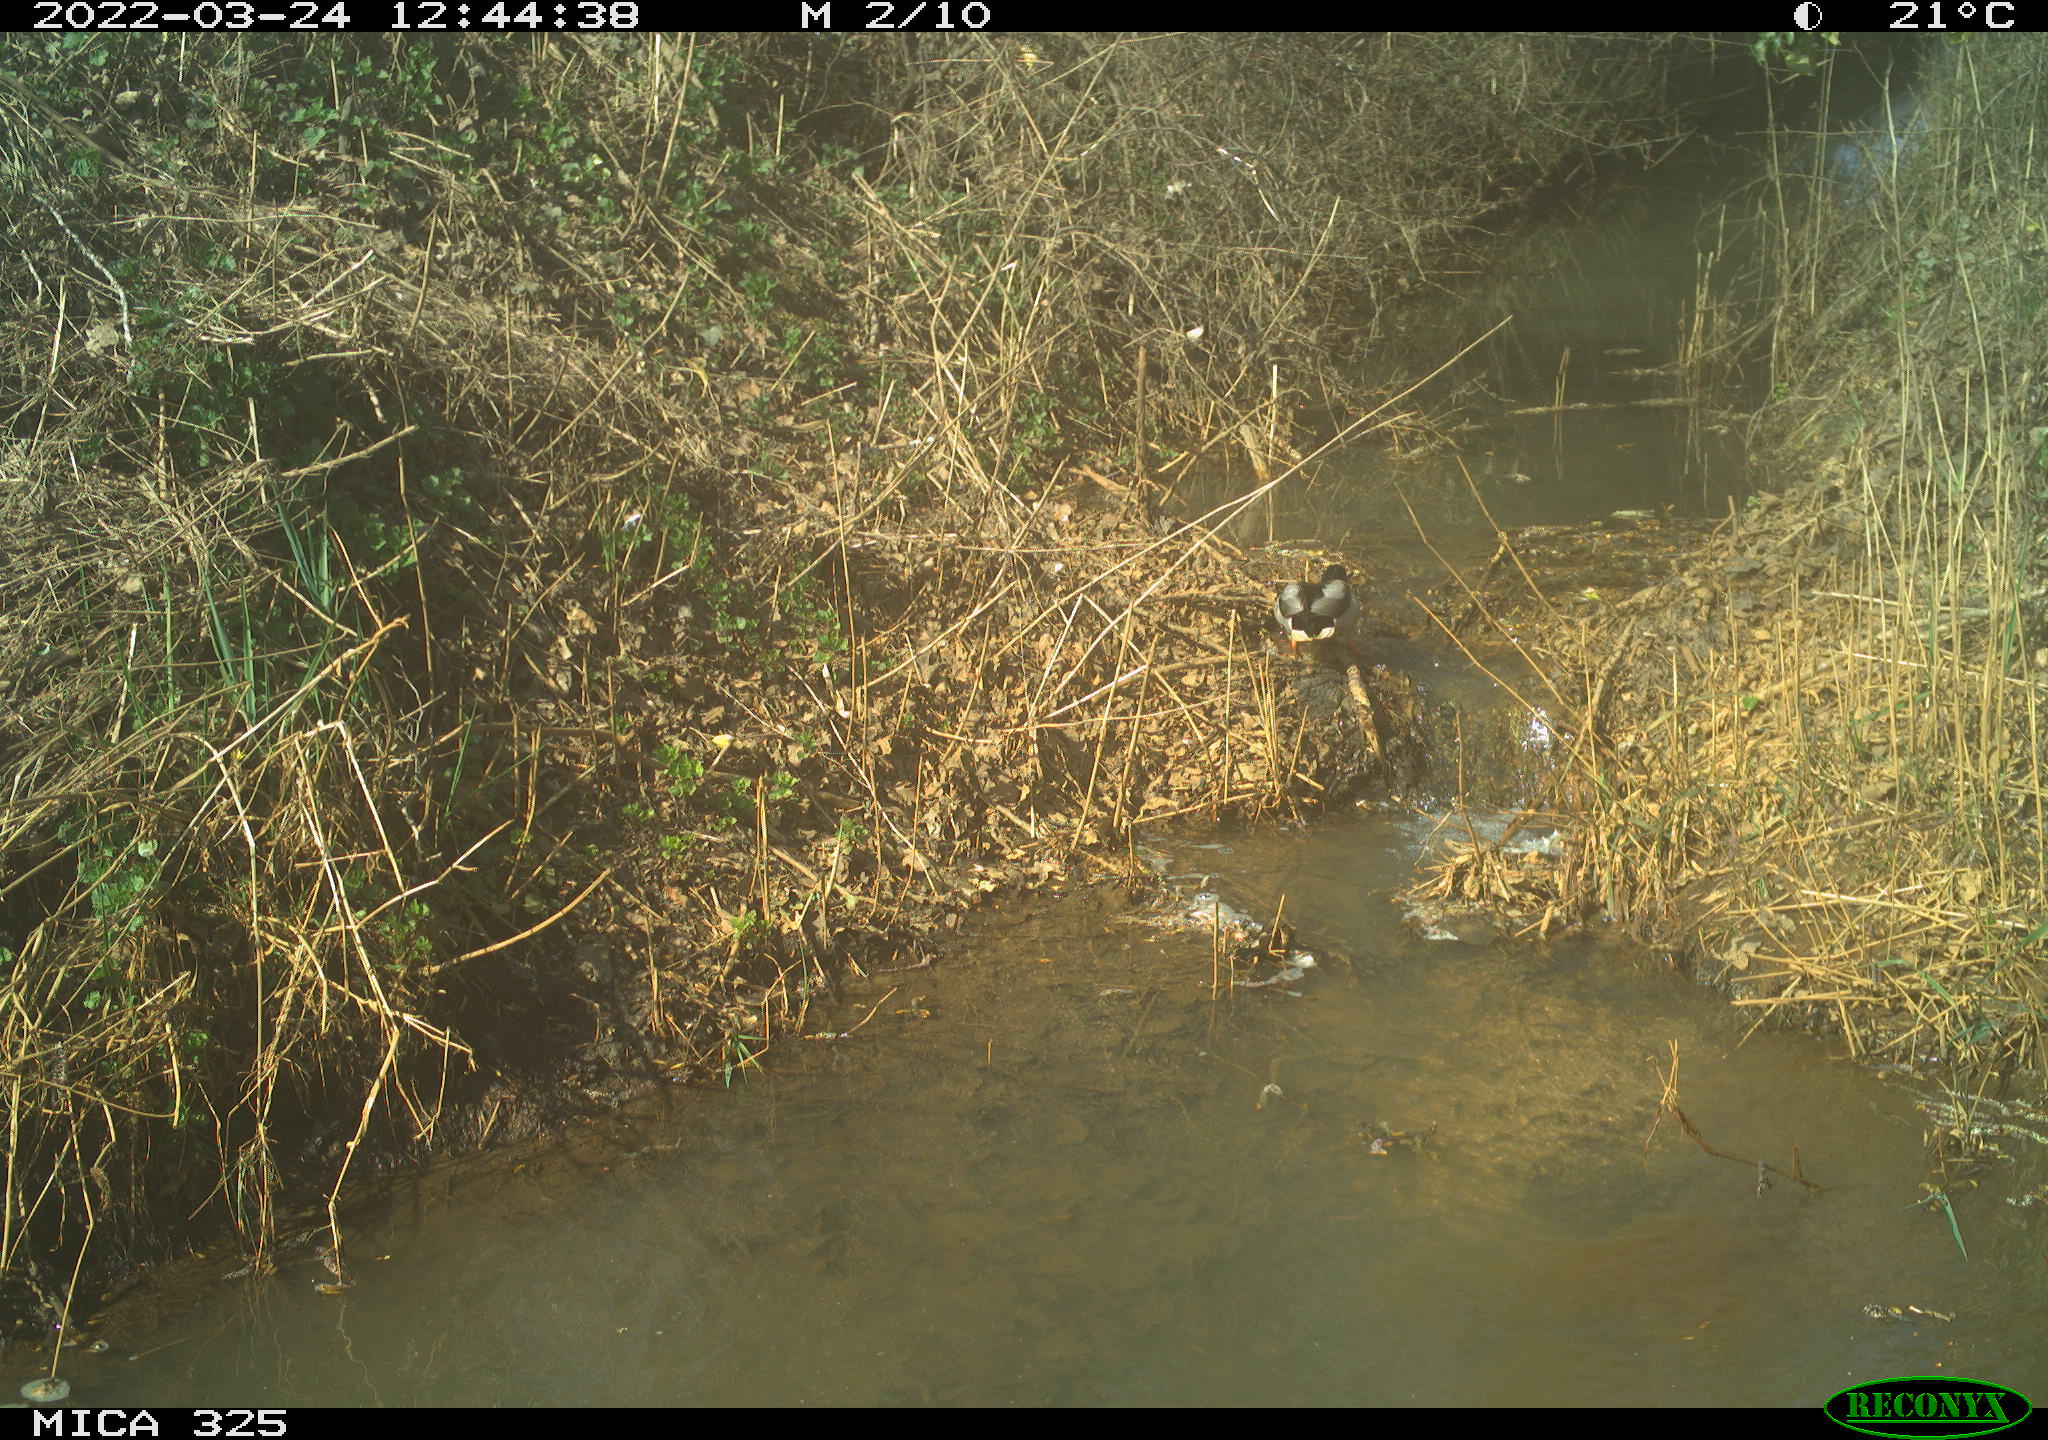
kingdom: Animalia
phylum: Chordata
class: Aves
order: Anseriformes
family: Anatidae
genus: Anas
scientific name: Anas platyrhynchos
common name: Mallard
